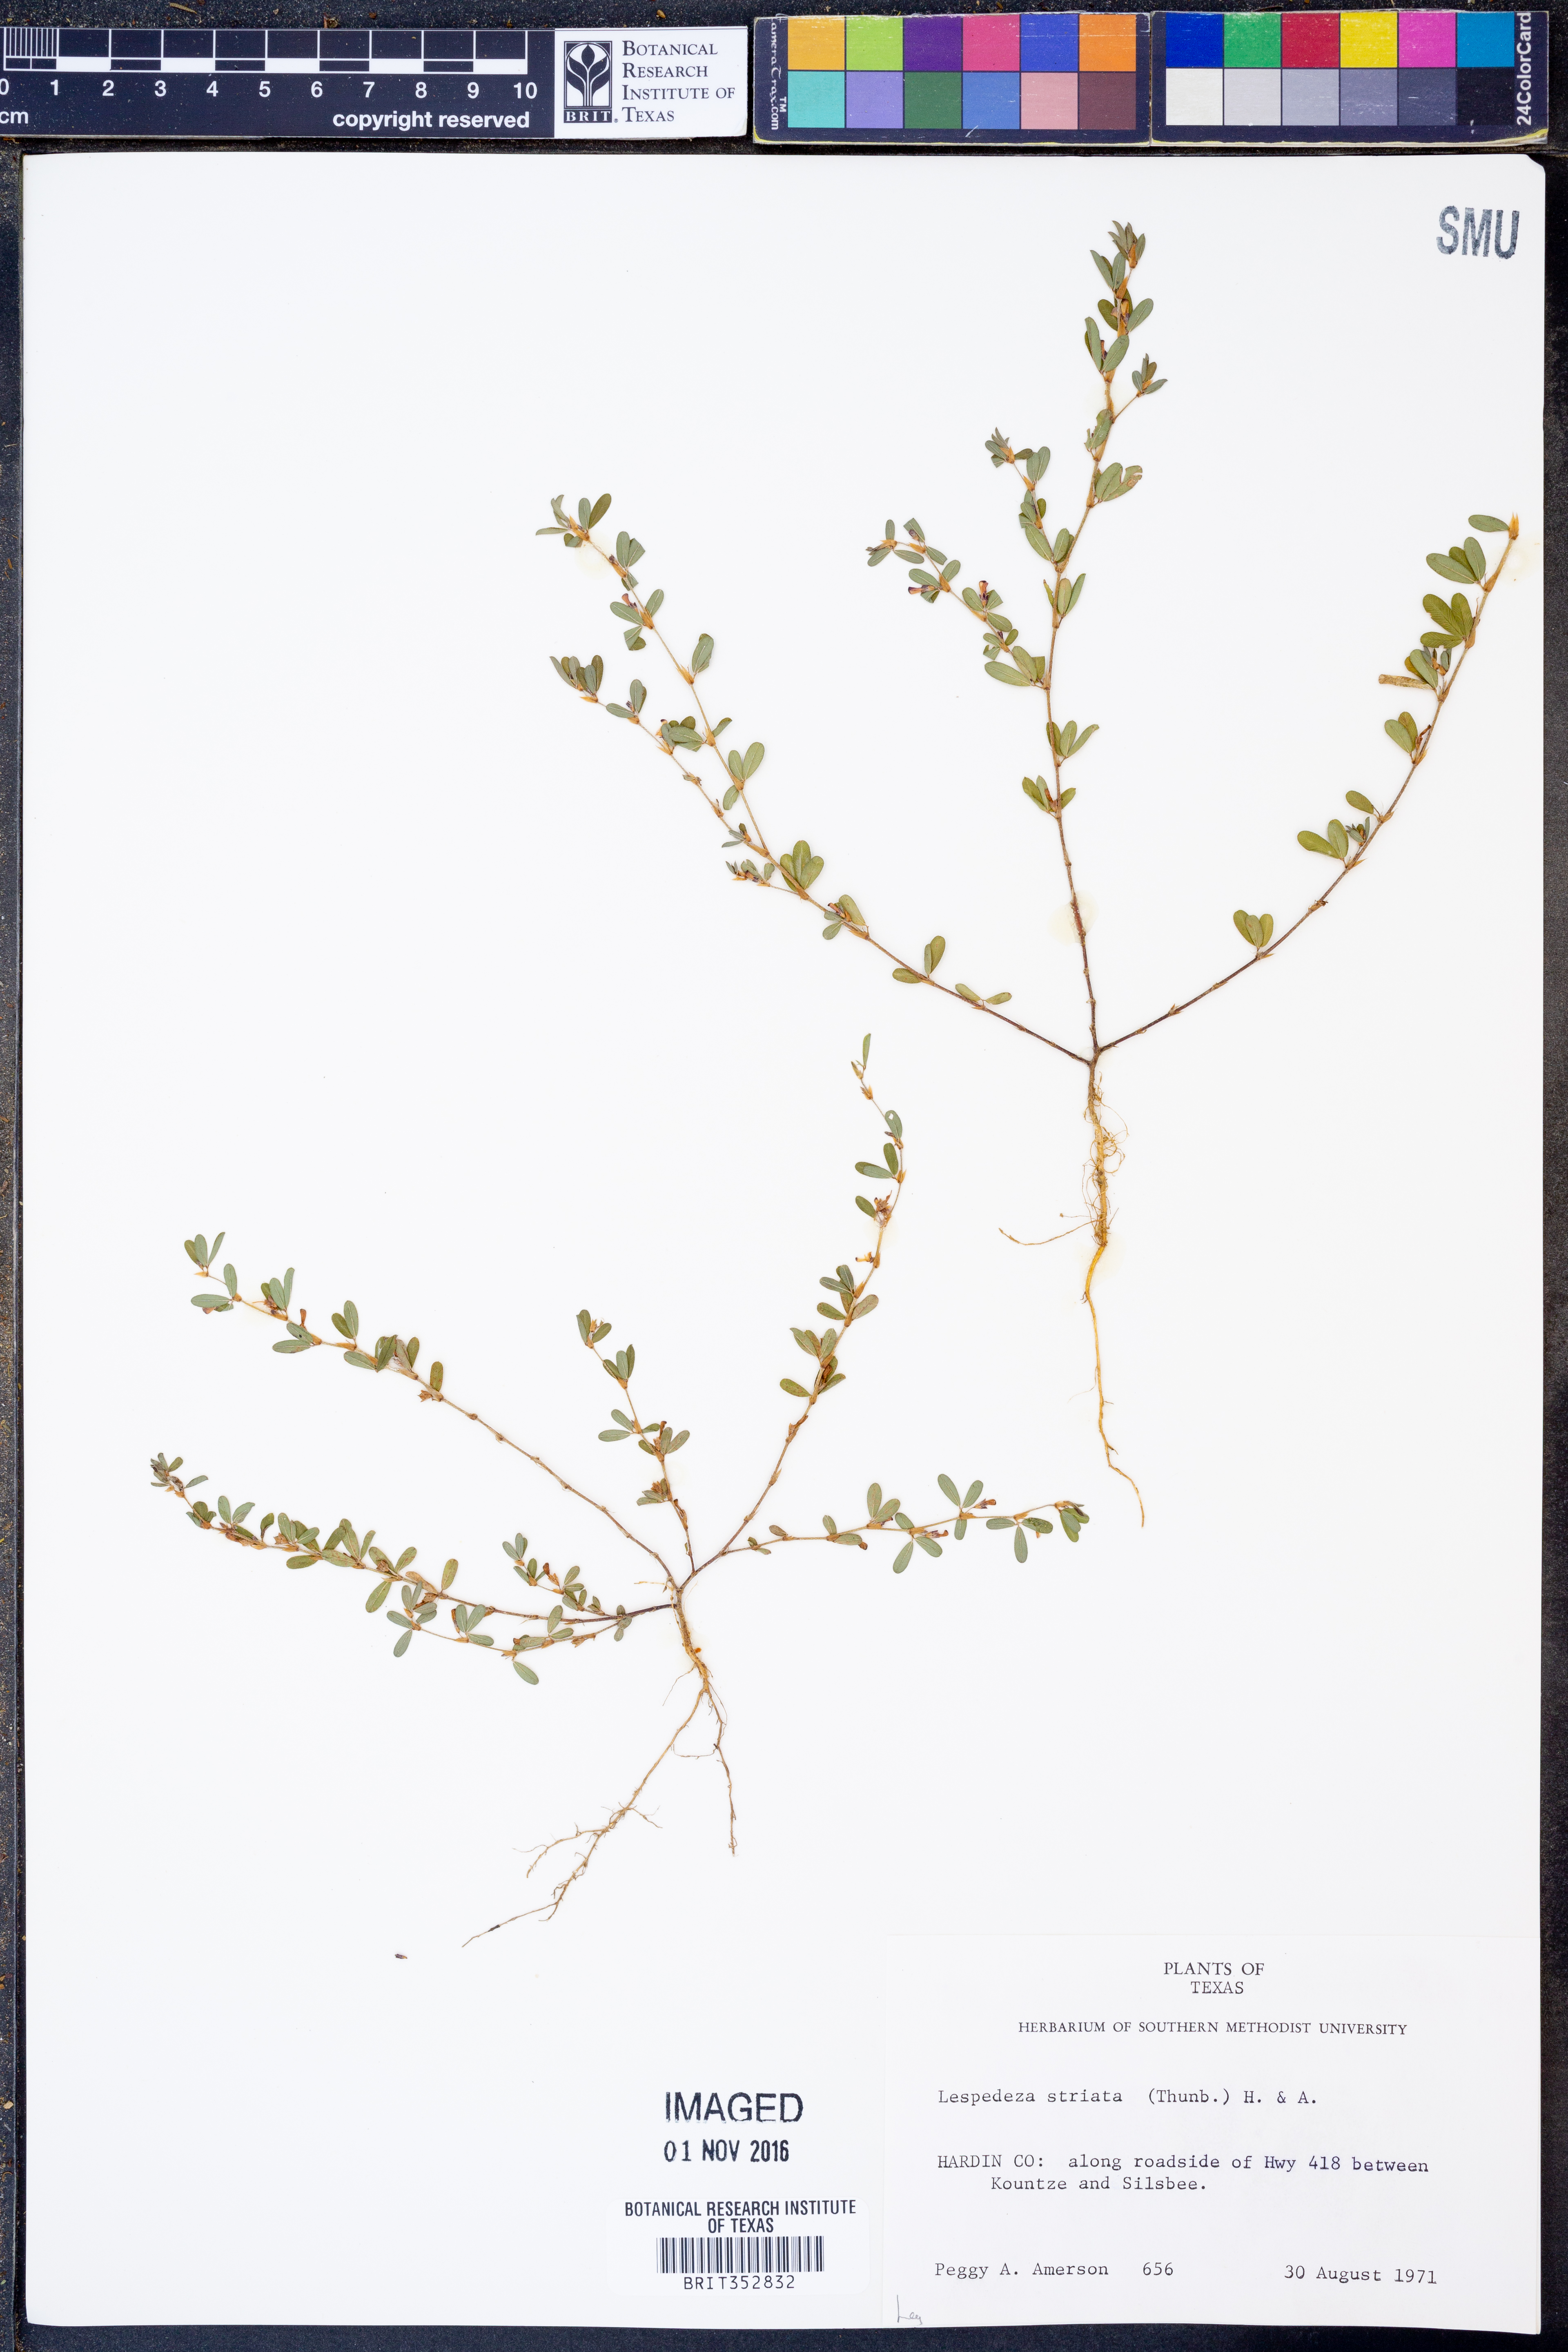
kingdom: Plantae
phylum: Tracheophyta
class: Magnoliopsida
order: Fabales
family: Fabaceae
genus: Kummerowia
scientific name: Kummerowia striata
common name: Japanese clover
